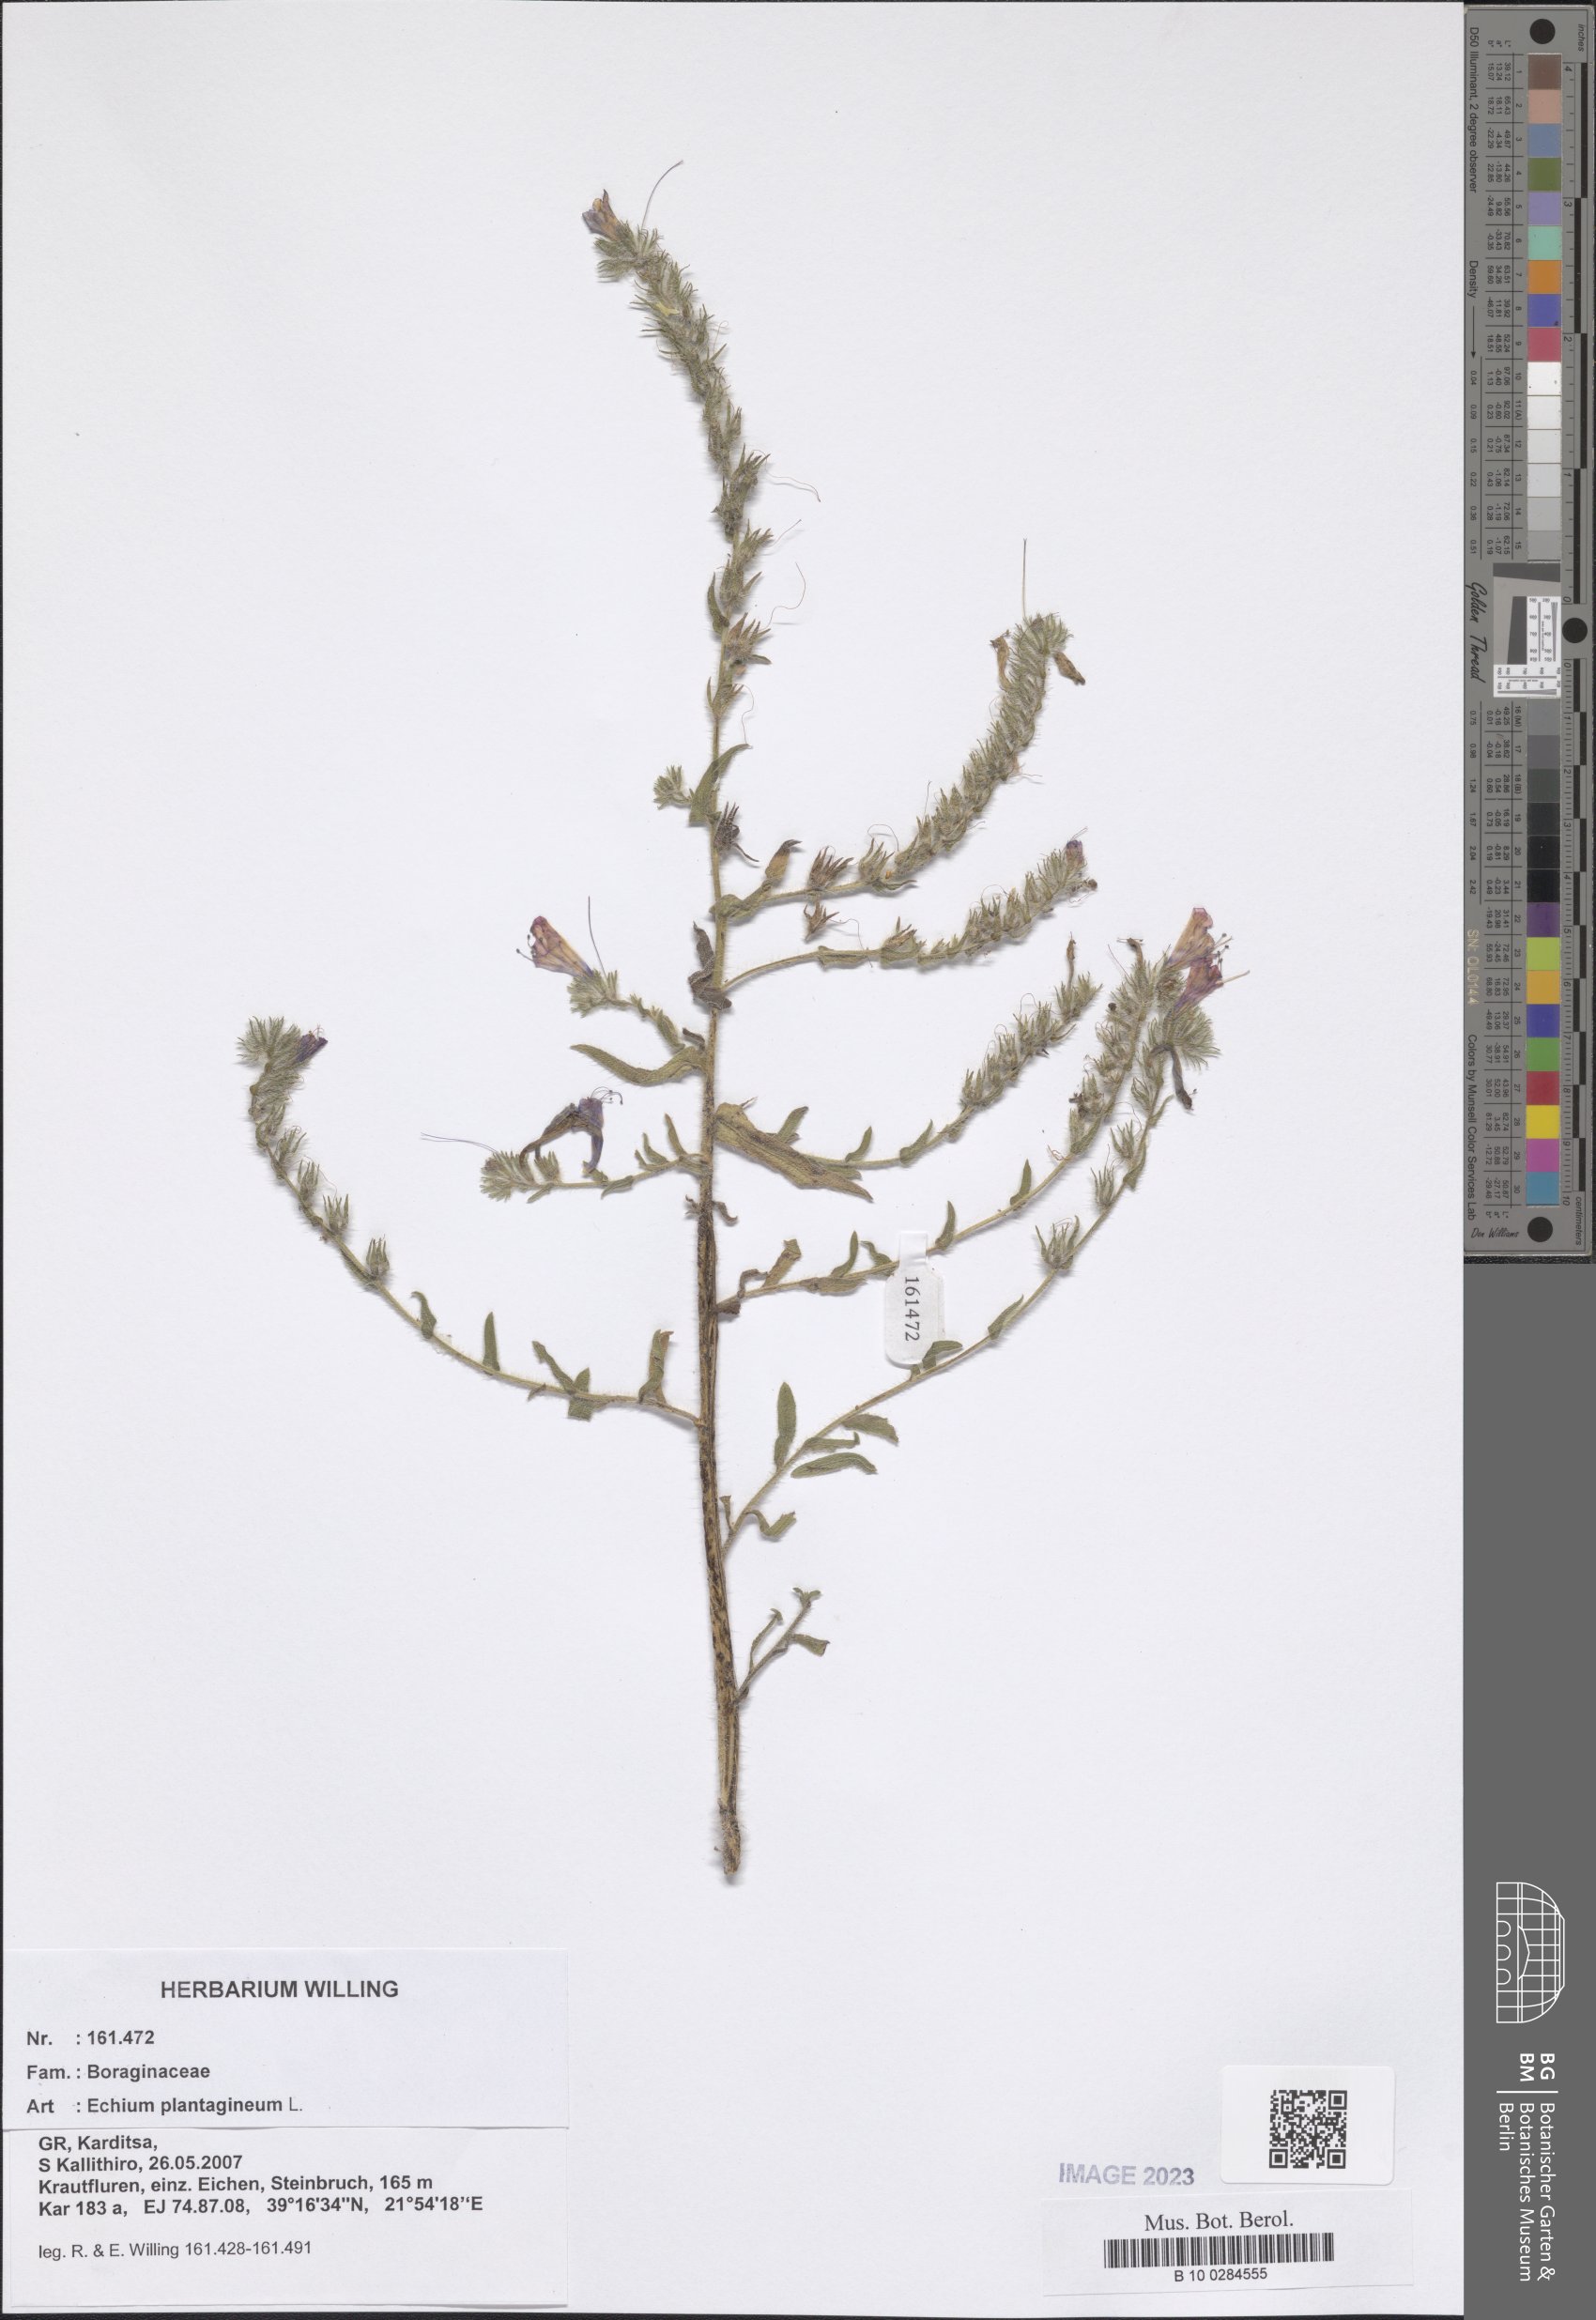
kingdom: Plantae
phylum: Tracheophyta
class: Magnoliopsida
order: Boraginales
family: Boraginaceae
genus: Echium
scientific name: Echium plantagineum
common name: Purple viper's-bugloss
